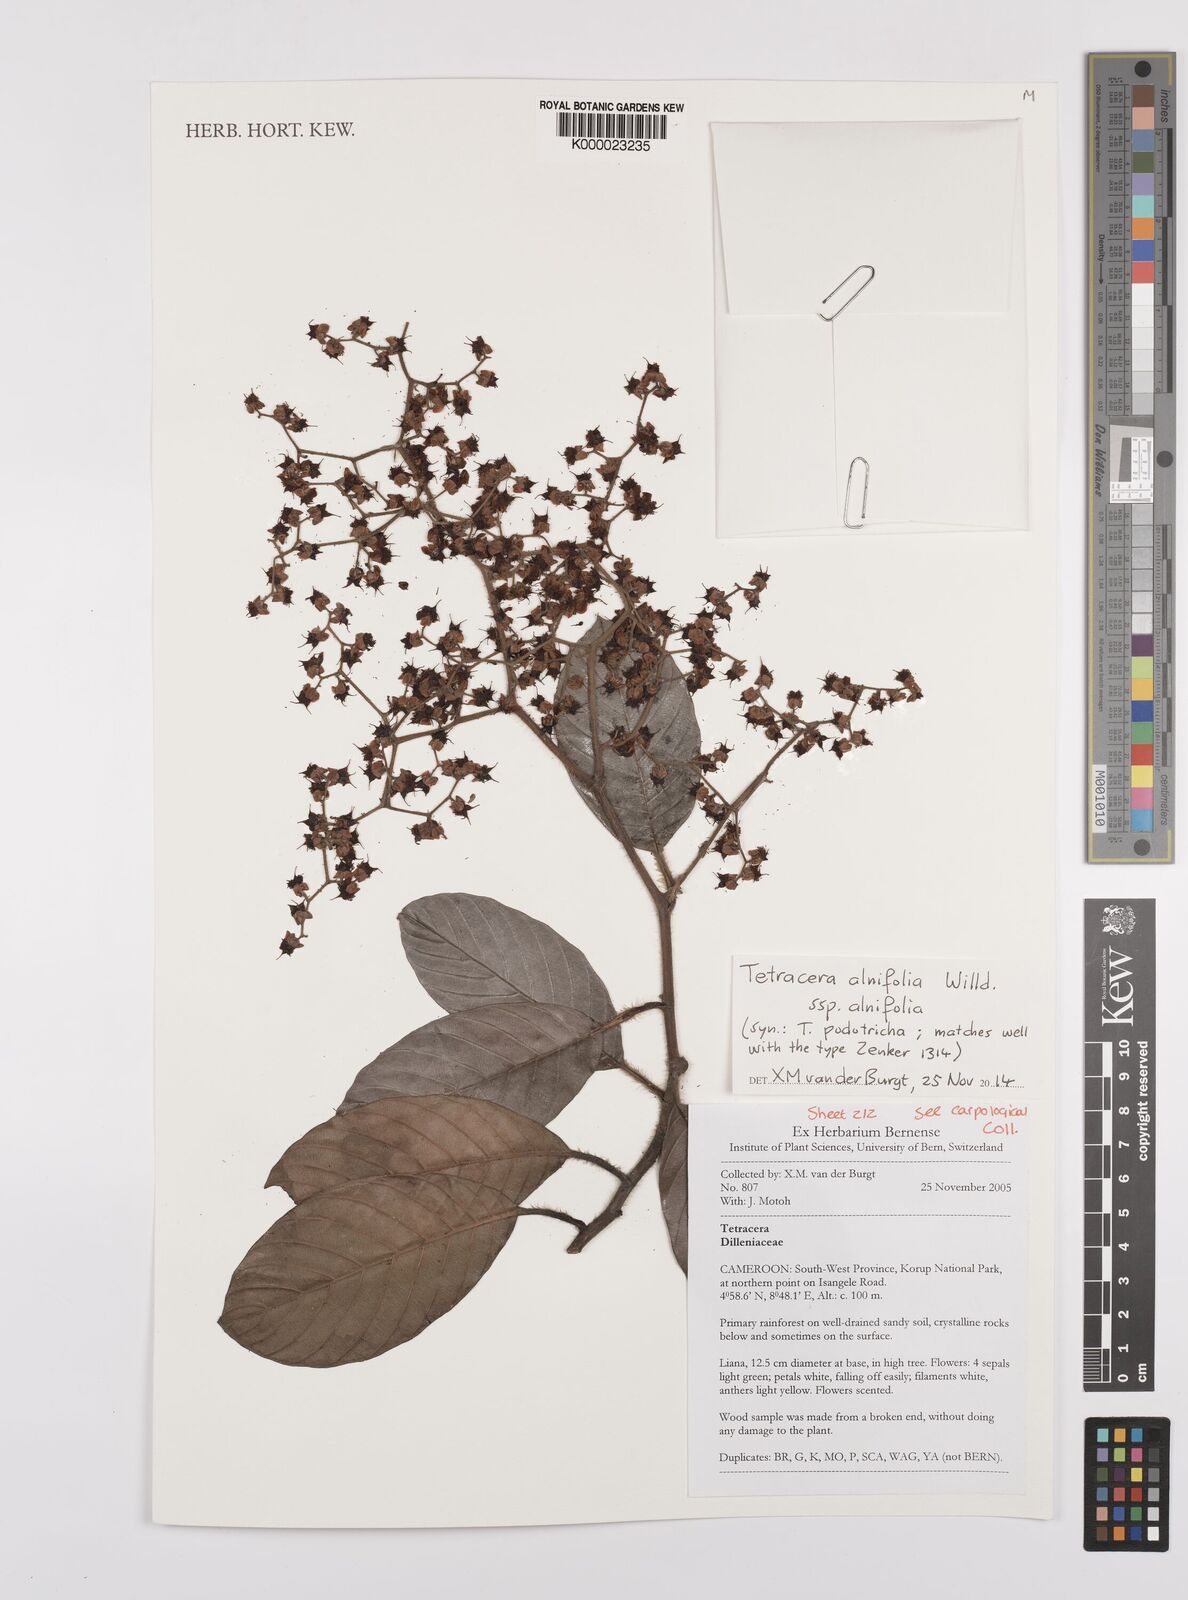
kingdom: Plantae
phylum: Tracheophyta
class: Magnoliopsida
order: Dilleniales
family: Dilleniaceae
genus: Tetracera
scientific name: Tetracera alnifolia
